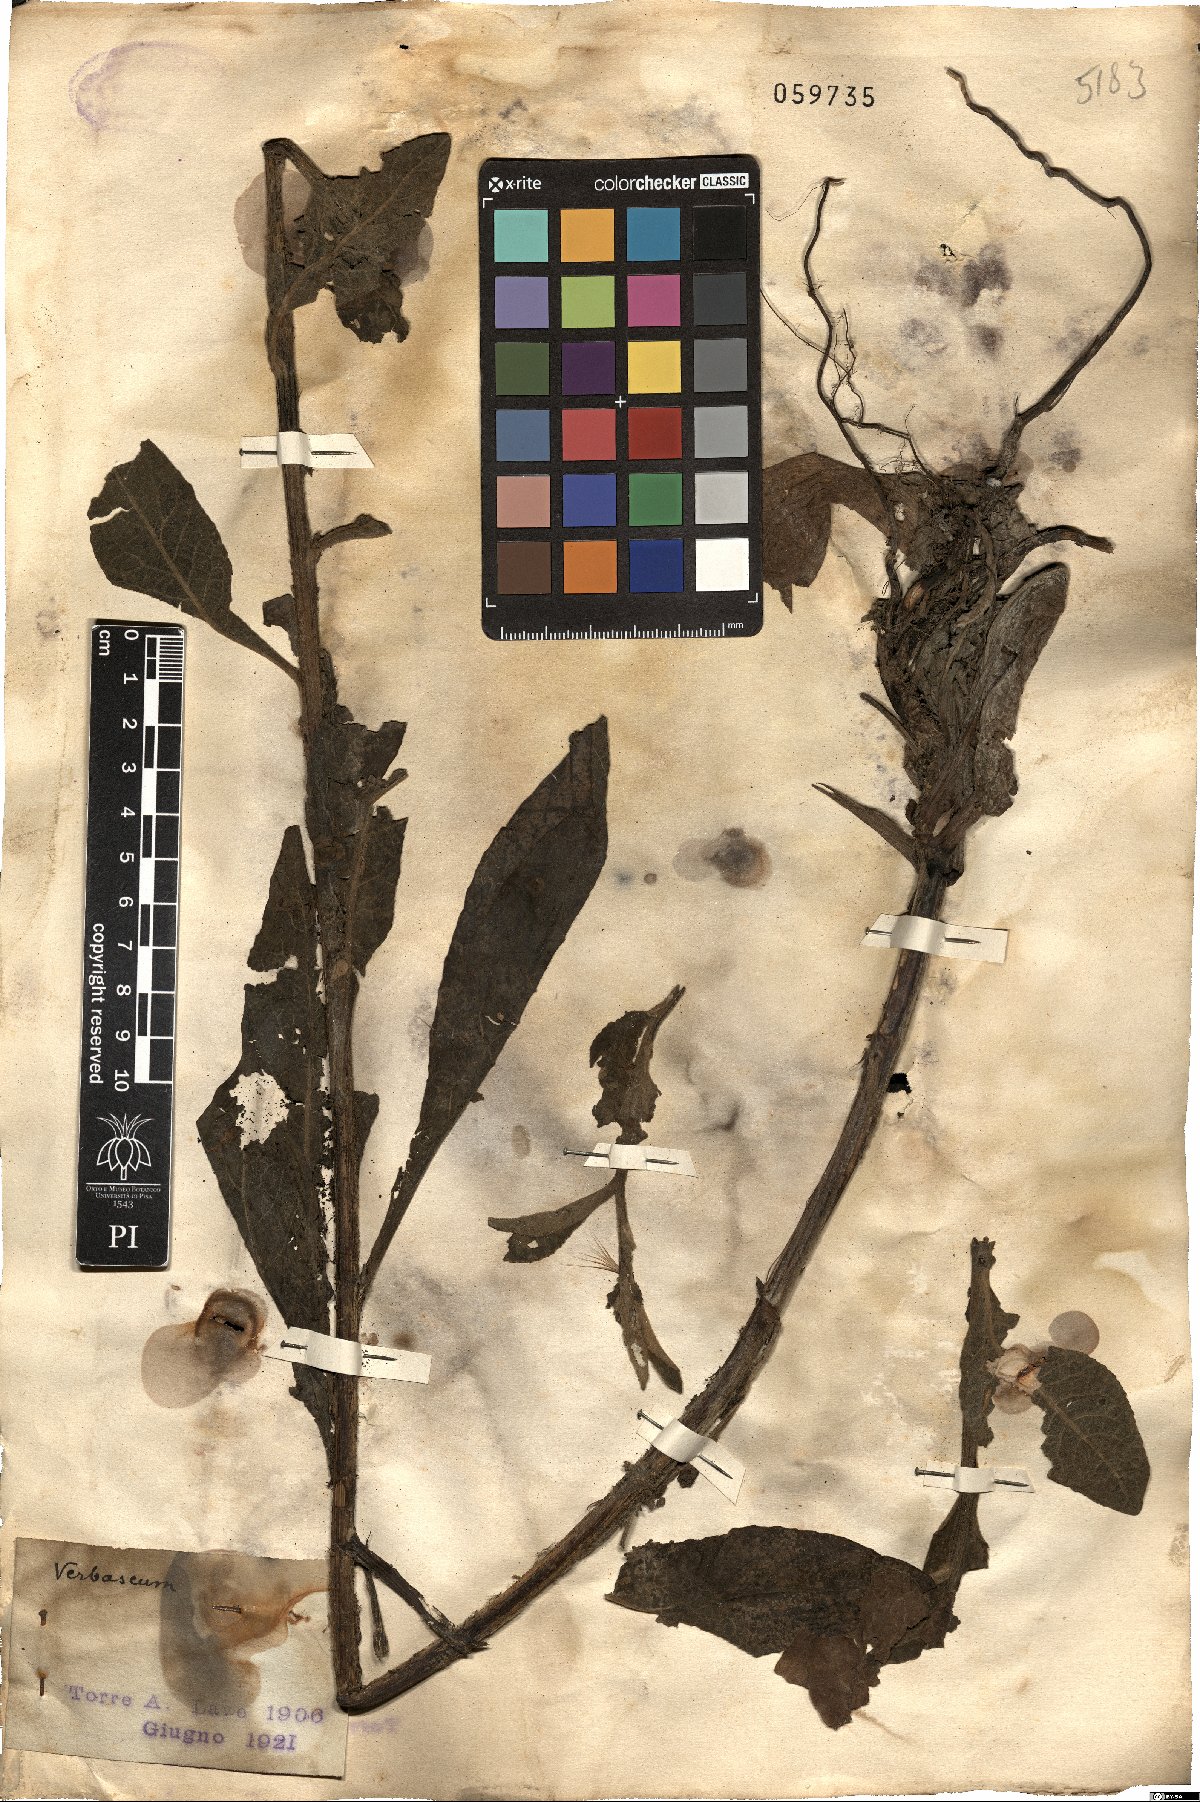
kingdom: Plantae
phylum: Tracheophyta
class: Magnoliopsida
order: Lamiales
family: Scrophulariaceae
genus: Verbascum
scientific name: Verbascum
